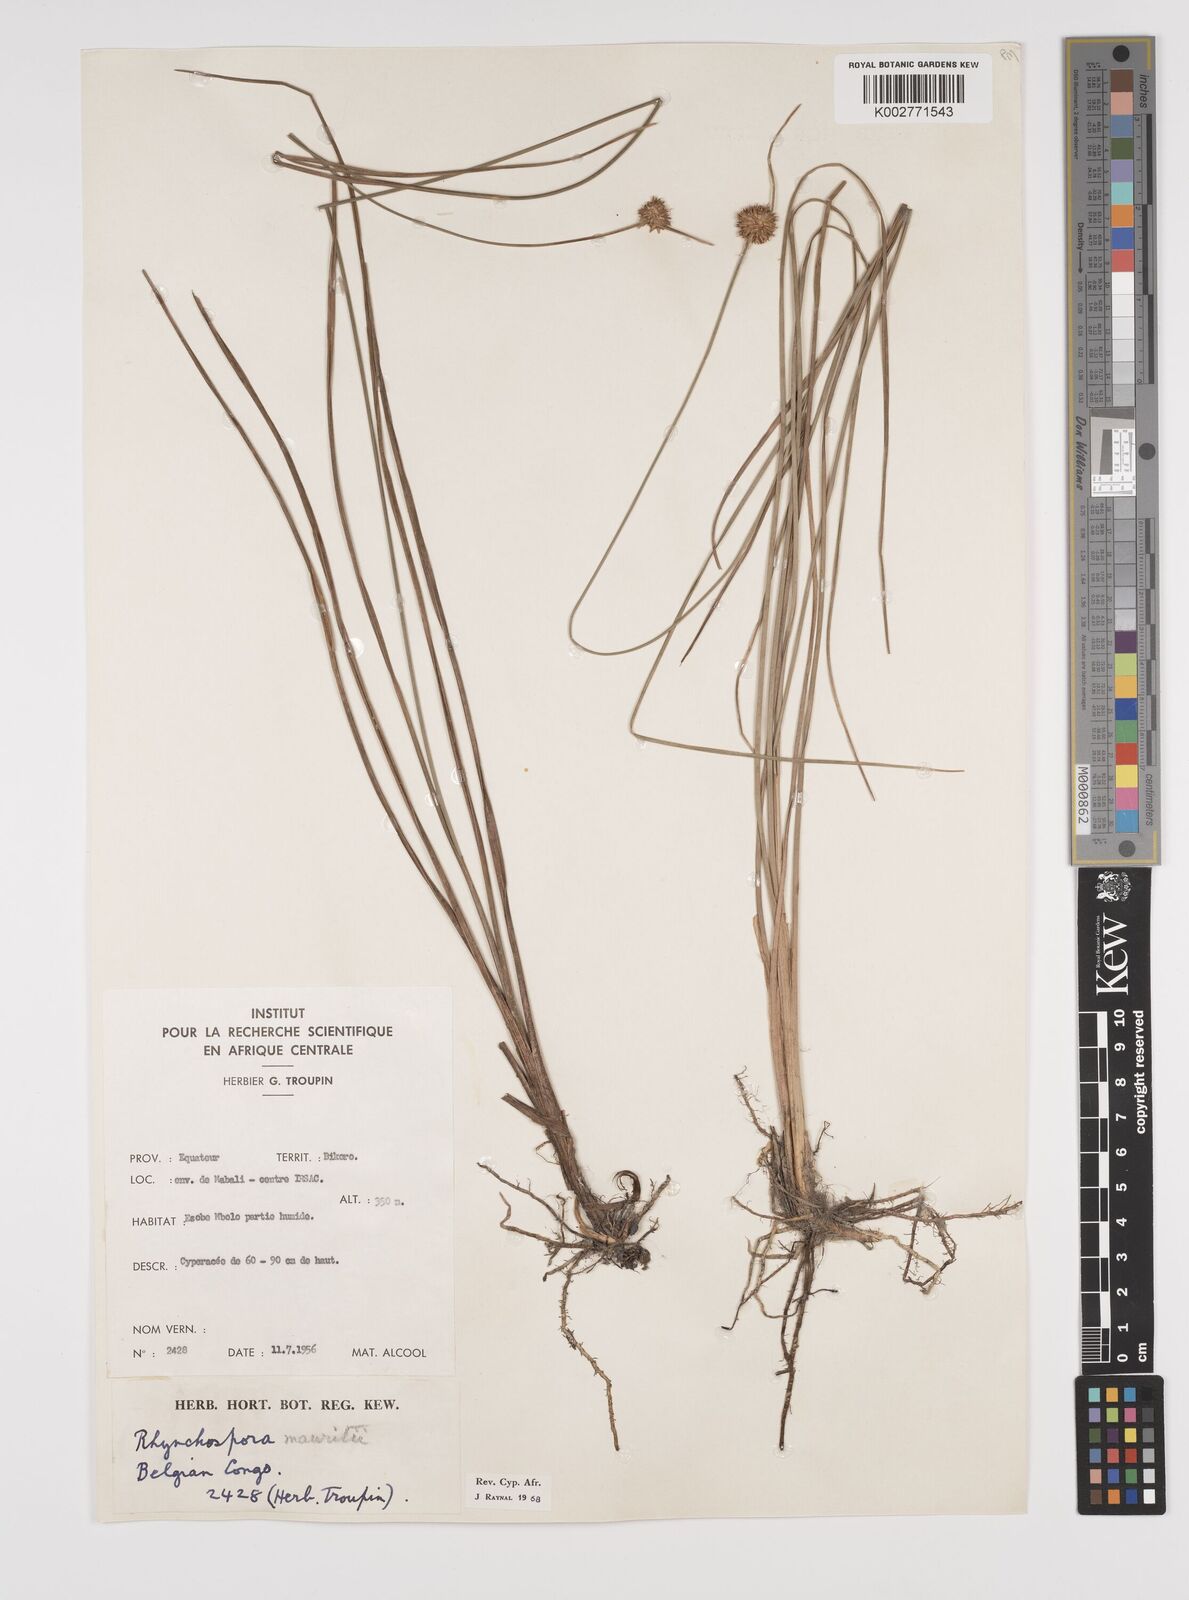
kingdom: Plantae
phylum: Tracheophyta
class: Liliopsida
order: Poales
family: Cyperaceae
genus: Rhynchospora
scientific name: Rhynchospora holoschoenoides
